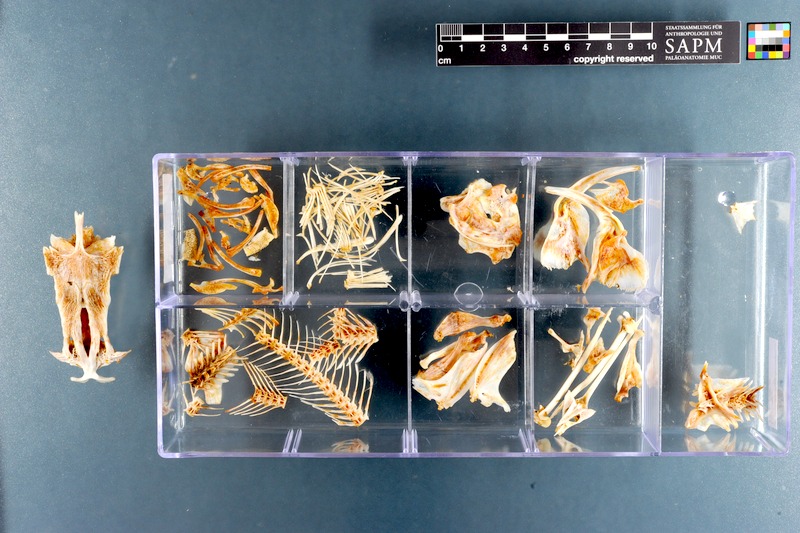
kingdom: Animalia
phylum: Chordata
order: Siluriformes
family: Ariidae
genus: Galeichthys
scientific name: Galeichthys feliceps
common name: White seacatfish
